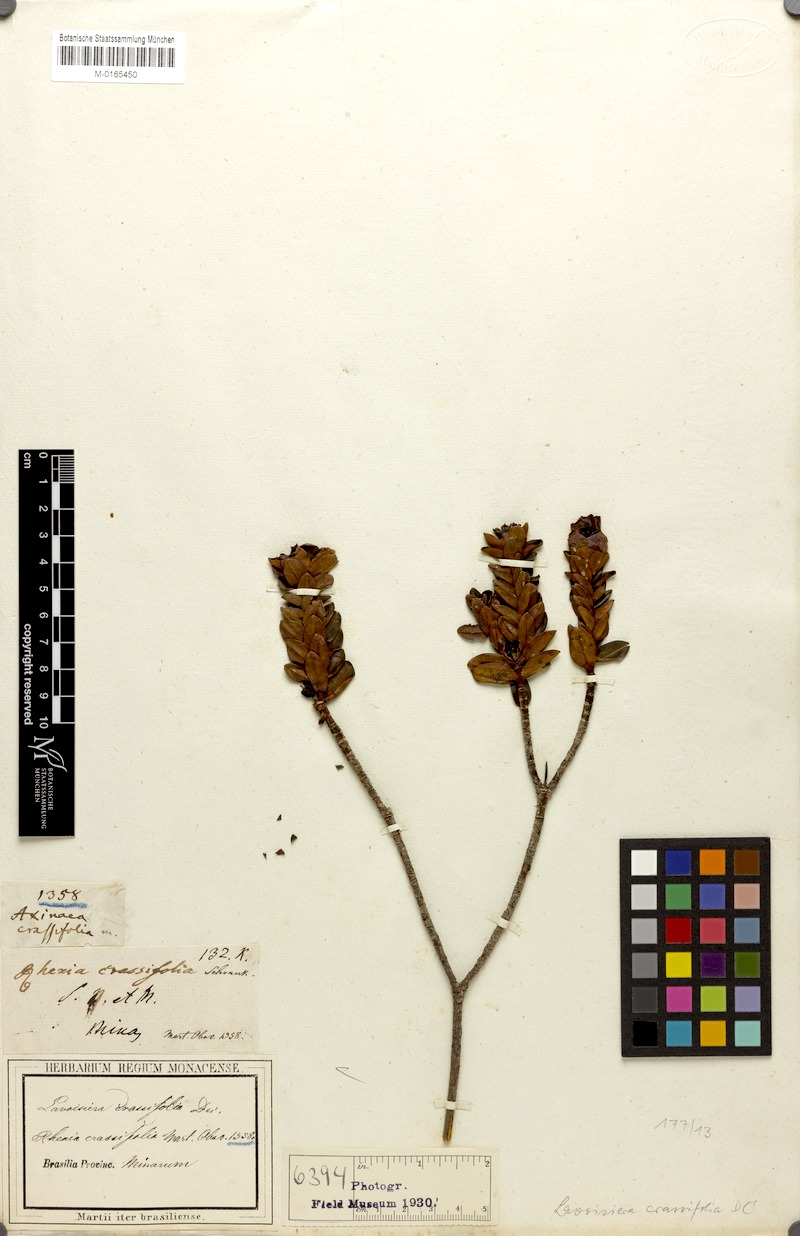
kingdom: Plantae
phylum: Tracheophyta
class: Magnoliopsida
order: Myrtales
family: Melastomataceae
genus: Microlicia
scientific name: Microlicia crassifolia
